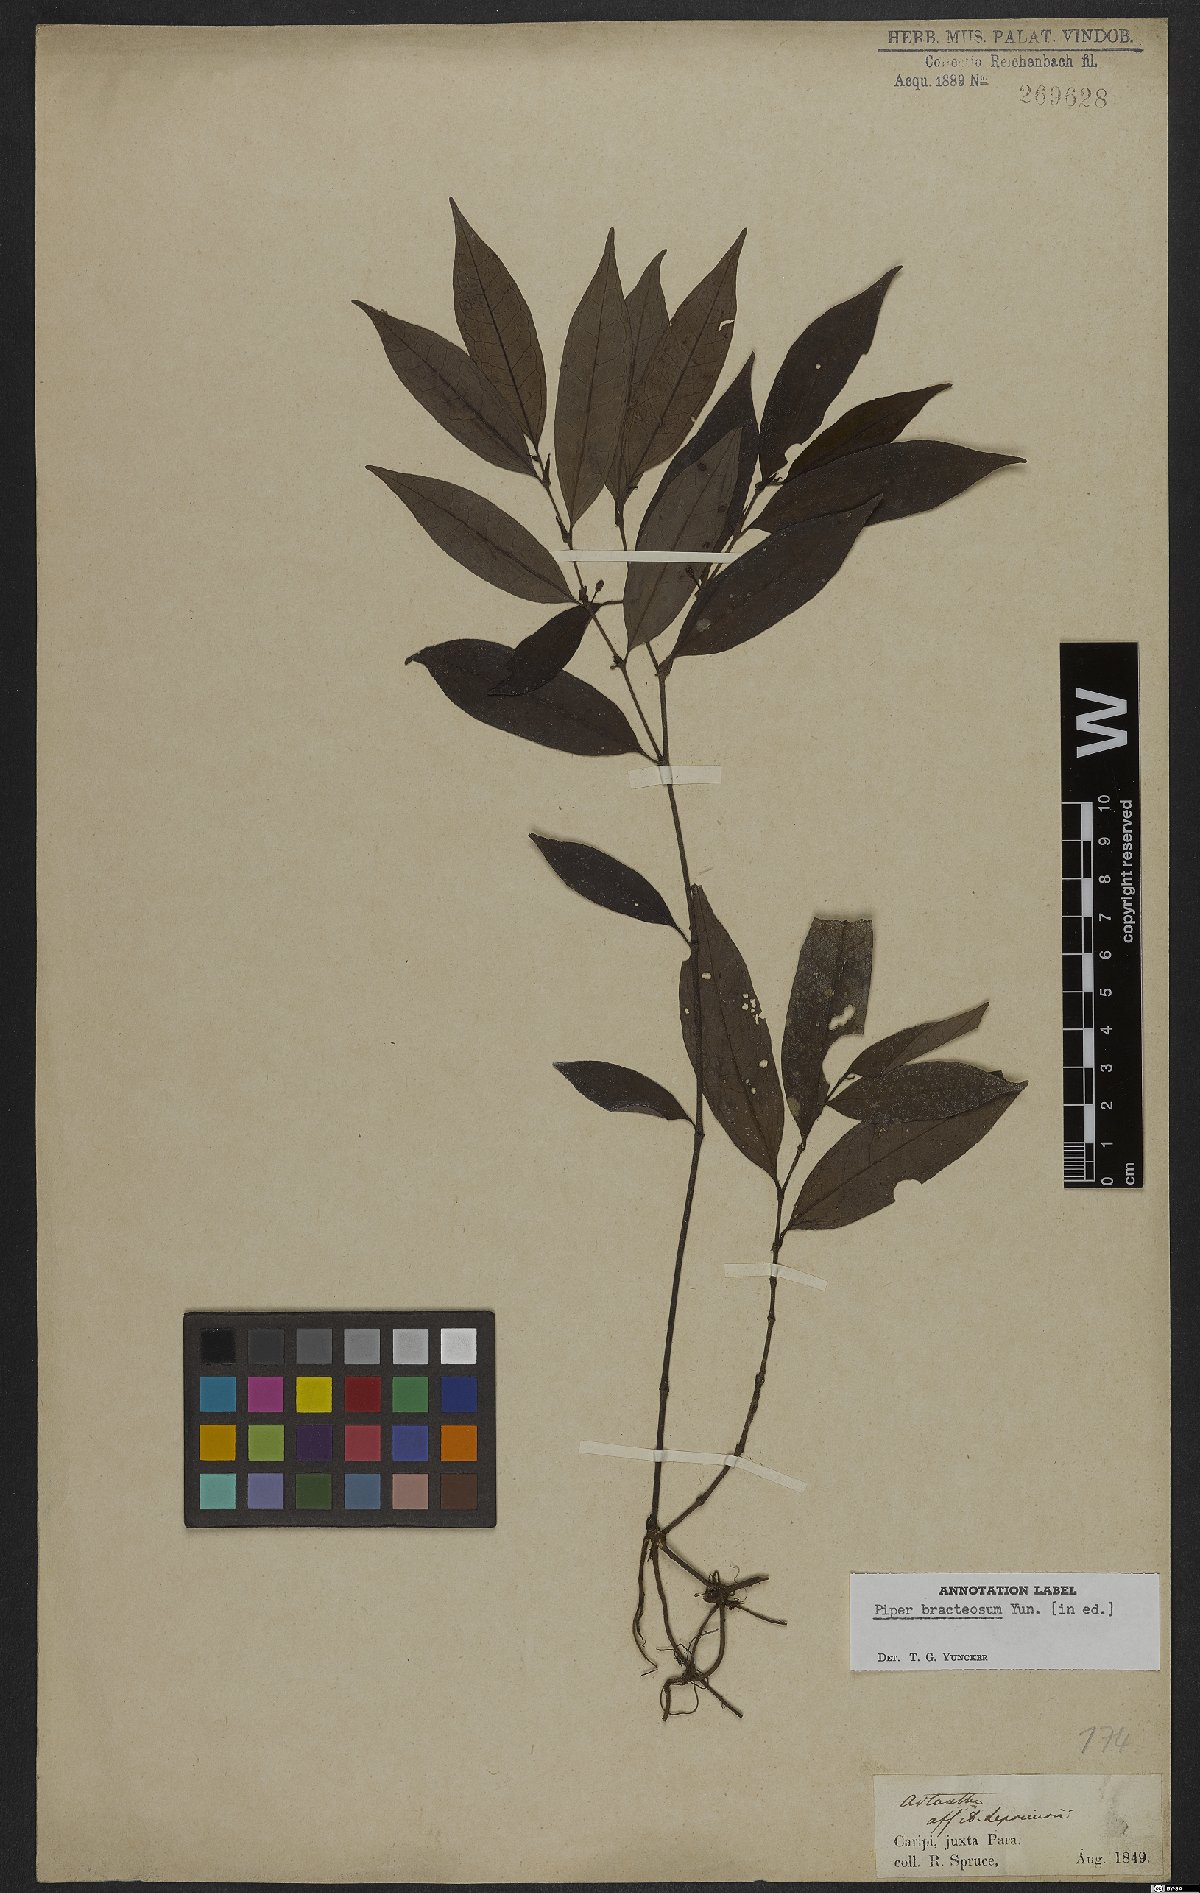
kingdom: Plantae
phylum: Tracheophyta
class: Magnoliopsida
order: Piperales
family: Piperaceae
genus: Peperomia
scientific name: Peperomia serpens
